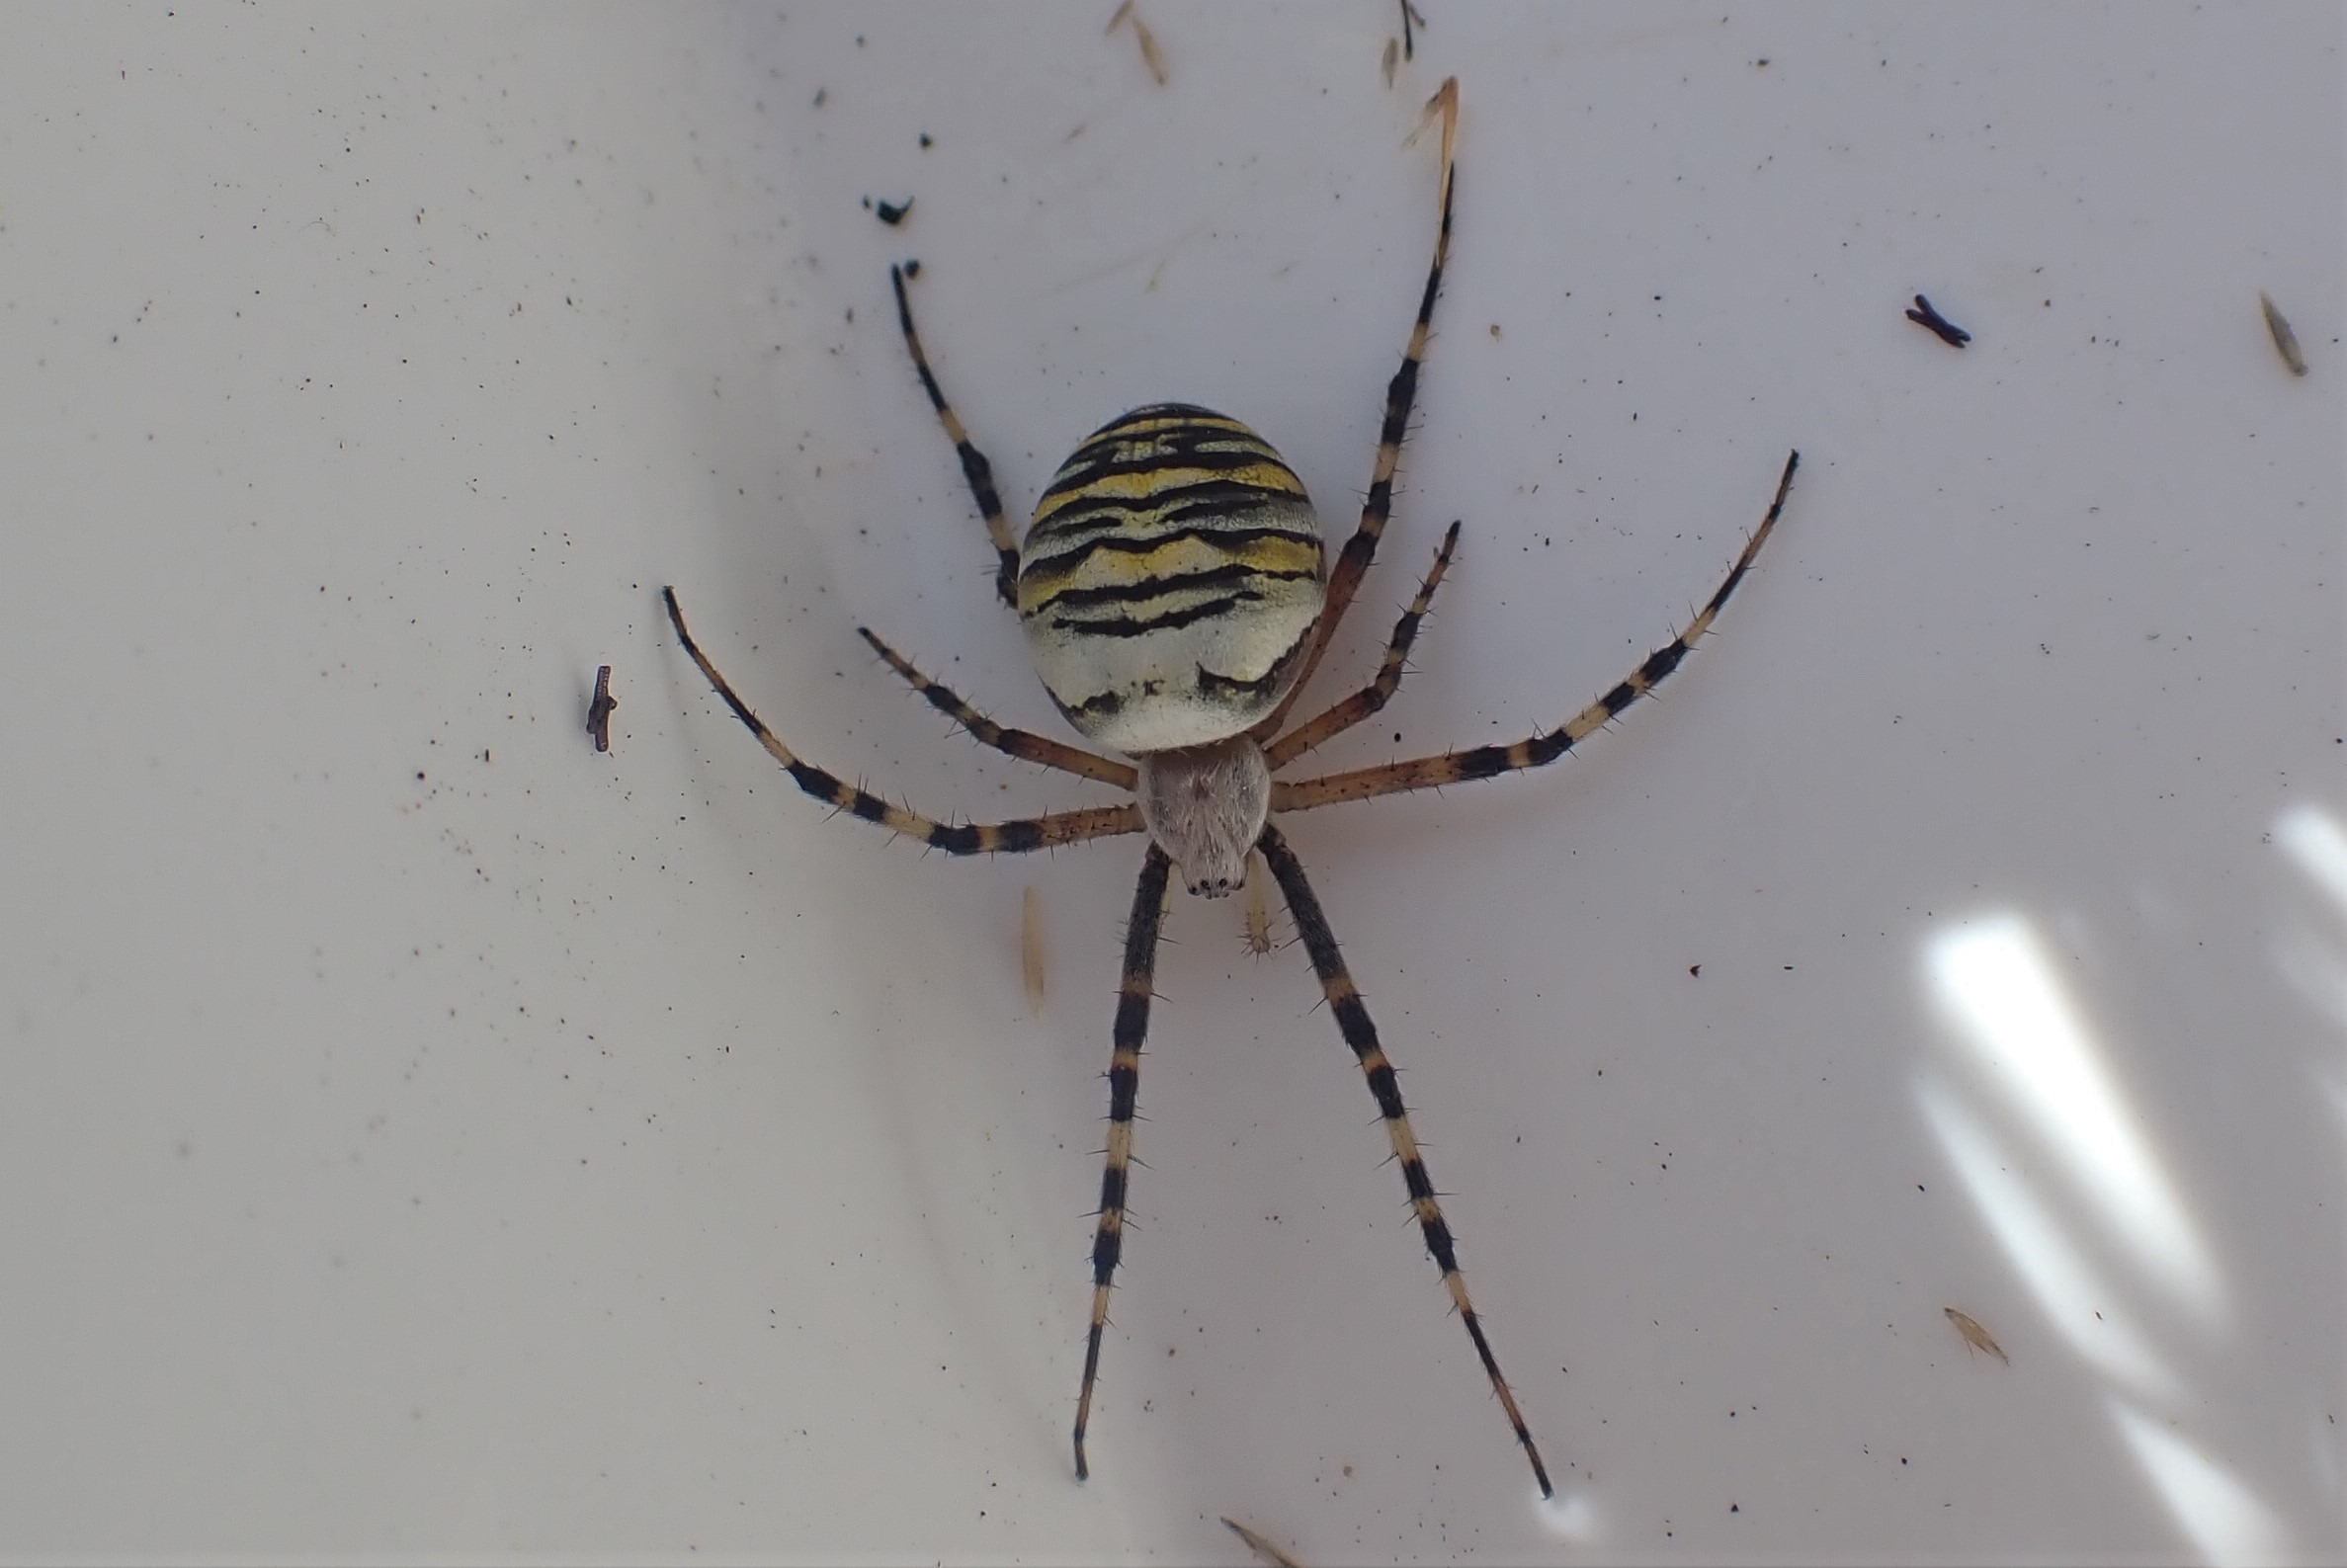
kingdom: Animalia
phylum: Arthropoda
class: Arachnida
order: Araneae
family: Araneidae
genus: Argiope
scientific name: Argiope bruennichi
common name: Hvepseedderkop
